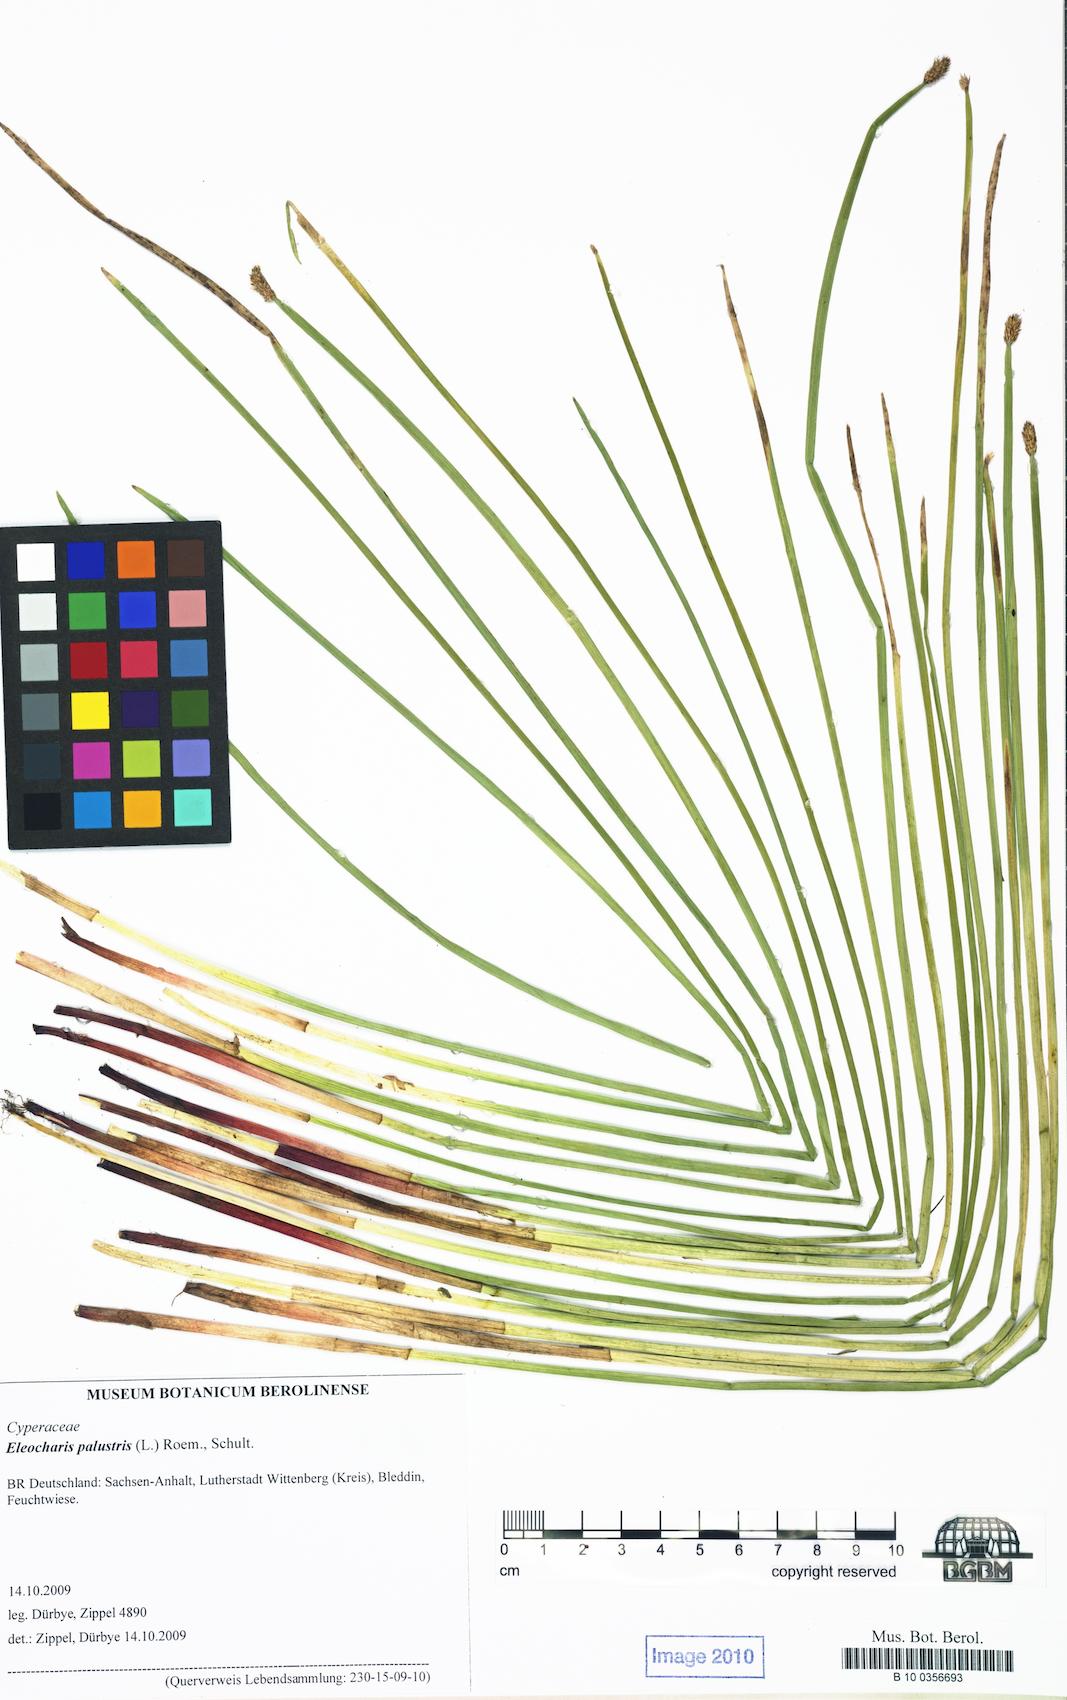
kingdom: Plantae
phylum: Tracheophyta
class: Liliopsida
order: Poales
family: Cyperaceae
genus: Eleocharis
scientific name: Eleocharis palustris
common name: Common spike-rush
